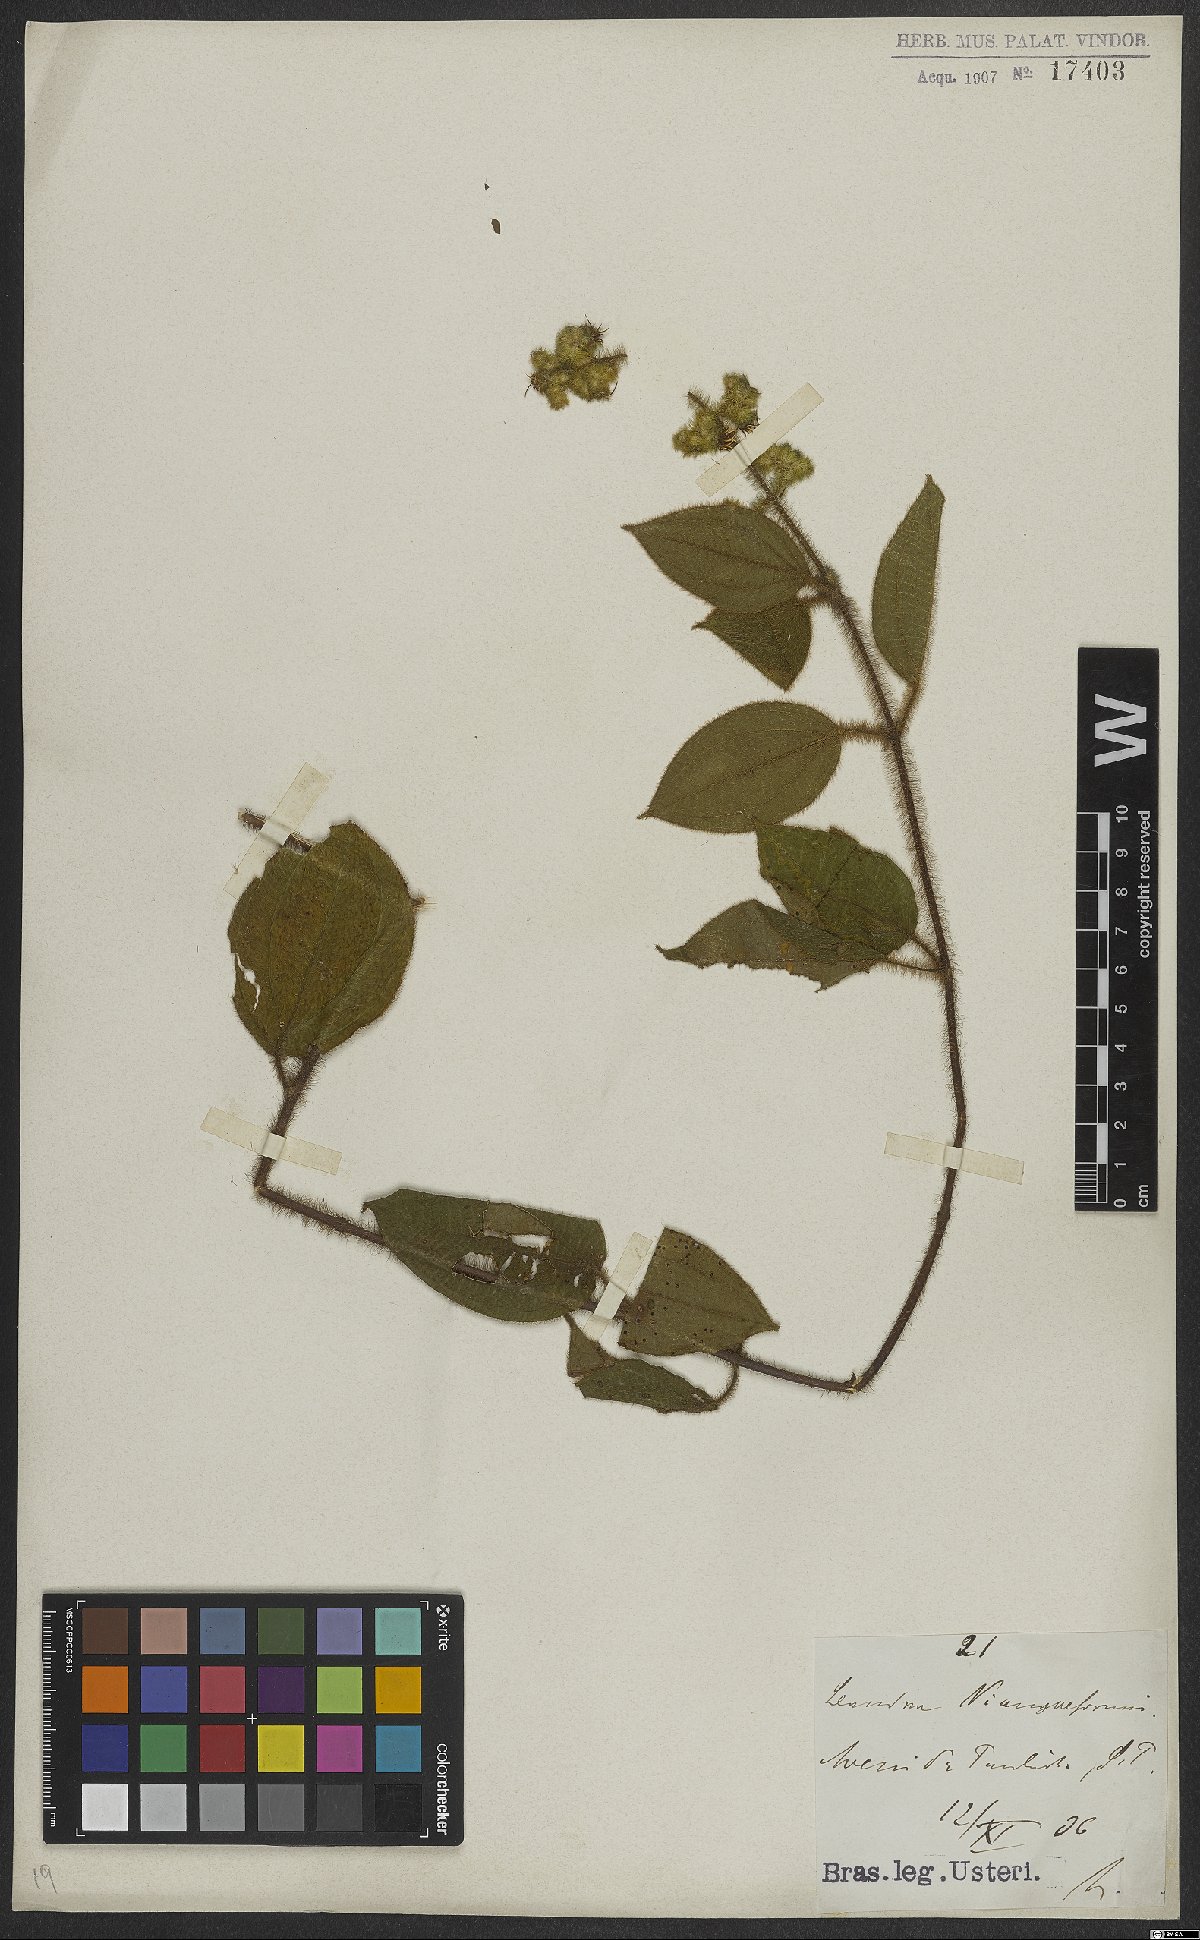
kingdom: Plantae
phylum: Tracheophyta
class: Magnoliopsida
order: Myrtales
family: Melastomataceae
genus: Miconia
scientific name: Miconia niangaeformis
